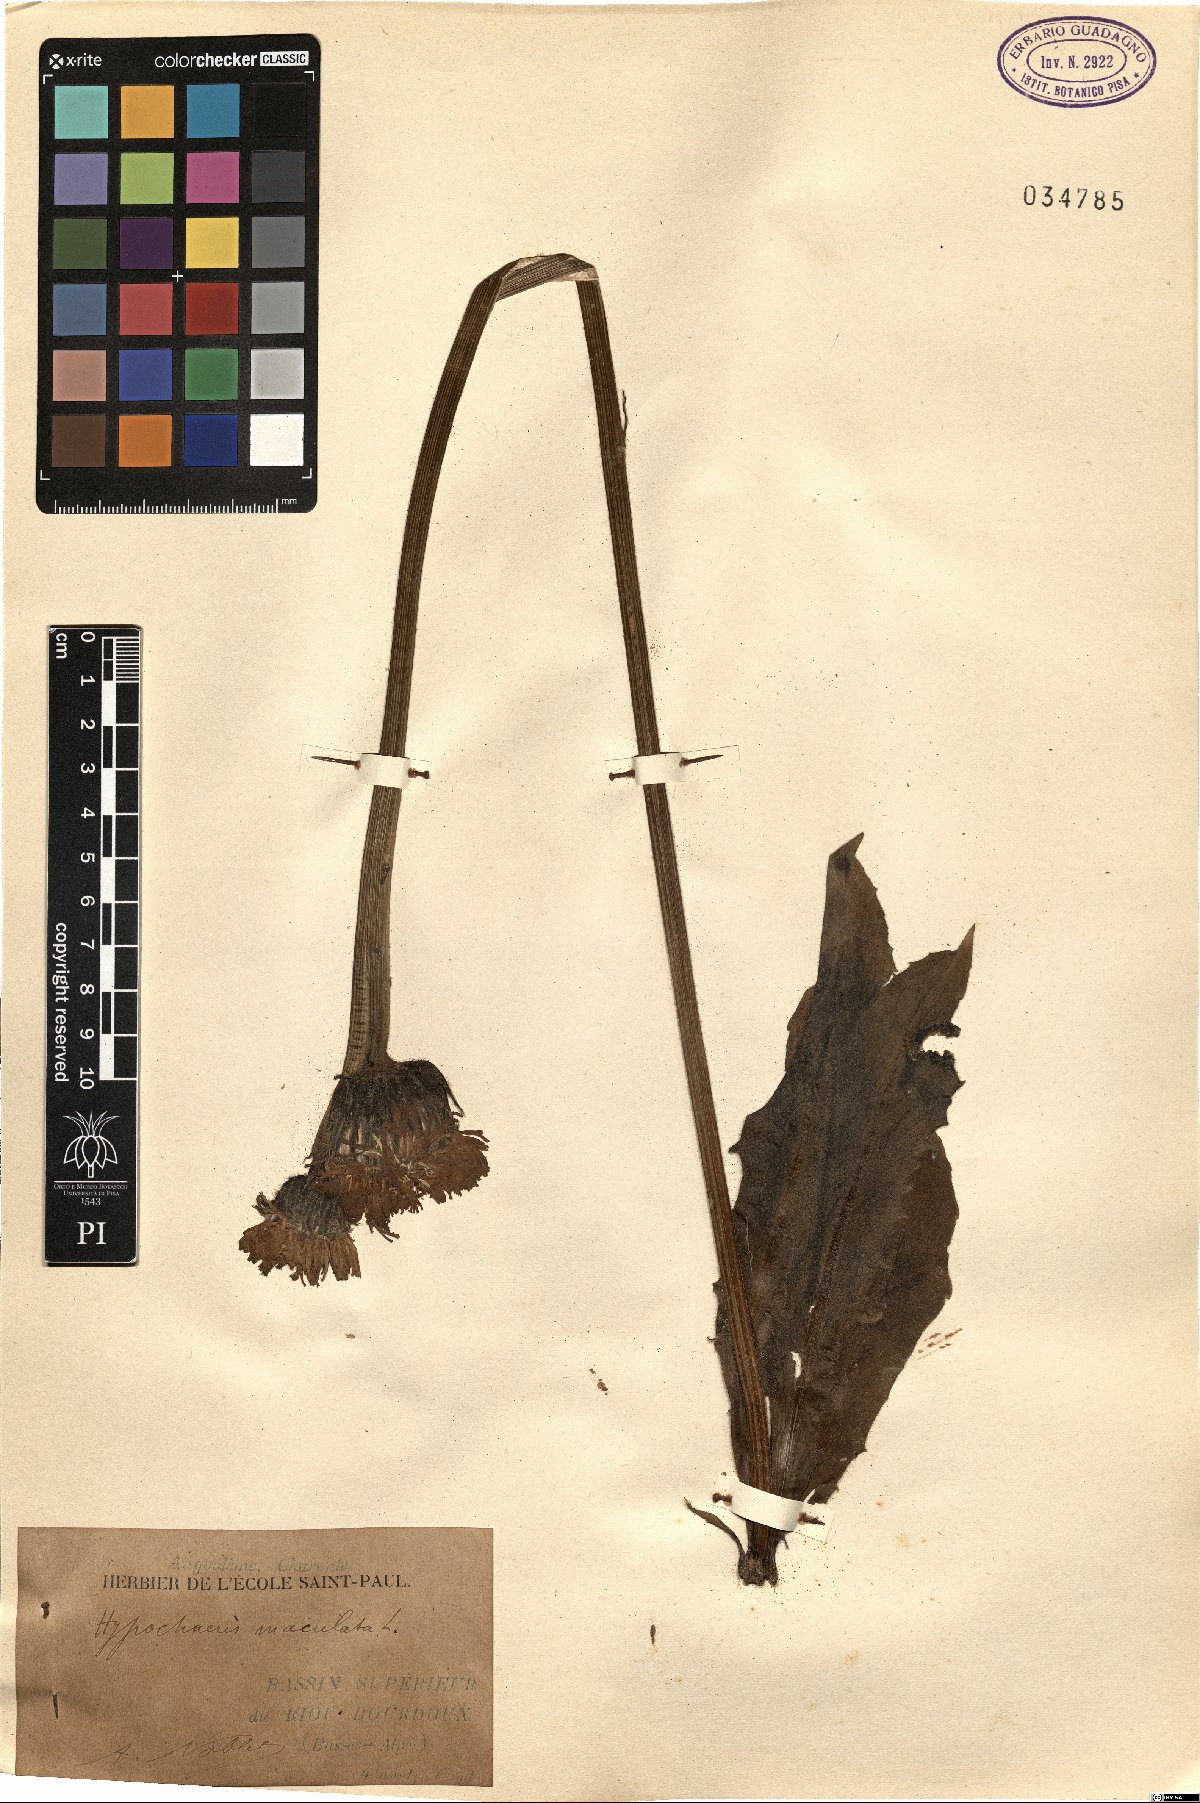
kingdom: Plantae
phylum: Tracheophyta
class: Magnoliopsida
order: Asterales
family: Asteraceae
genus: Trommsdorffia
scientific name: Trommsdorffia maculata
